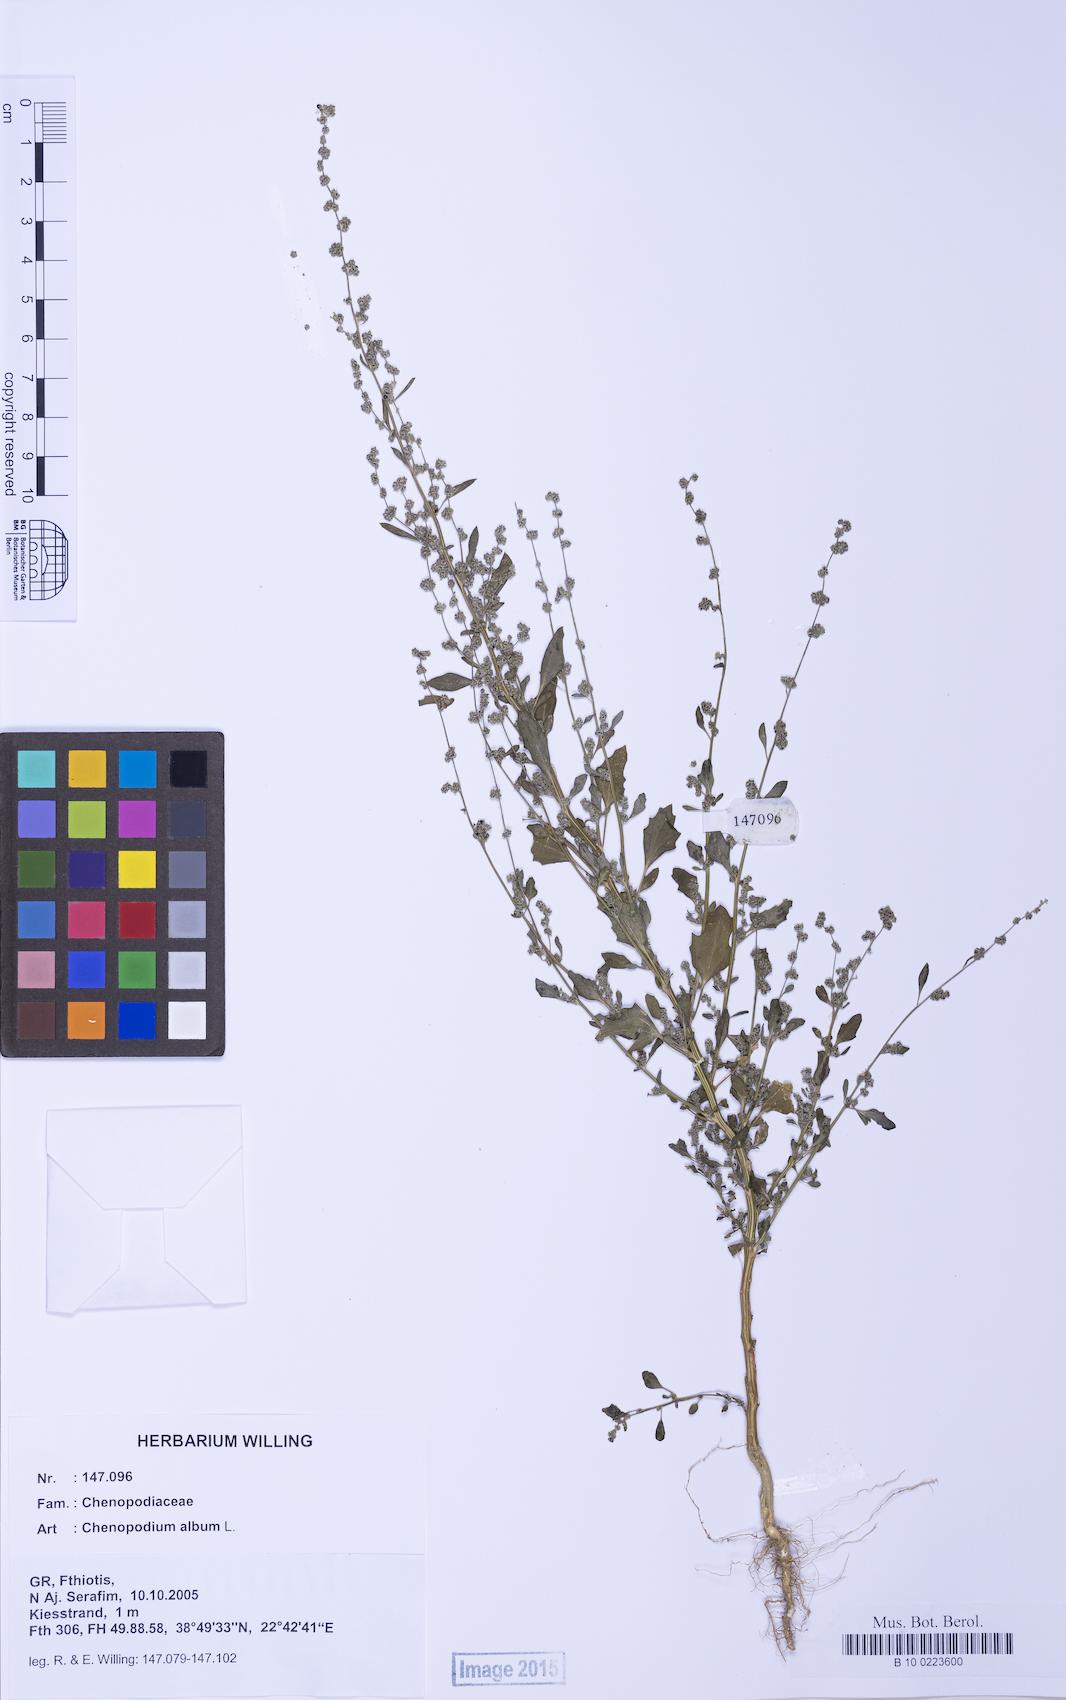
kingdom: Plantae
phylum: Tracheophyta
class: Magnoliopsida
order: Caryophyllales
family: Amaranthaceae
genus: Chenopodium
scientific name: Chenopodium album
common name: Fat-hen
